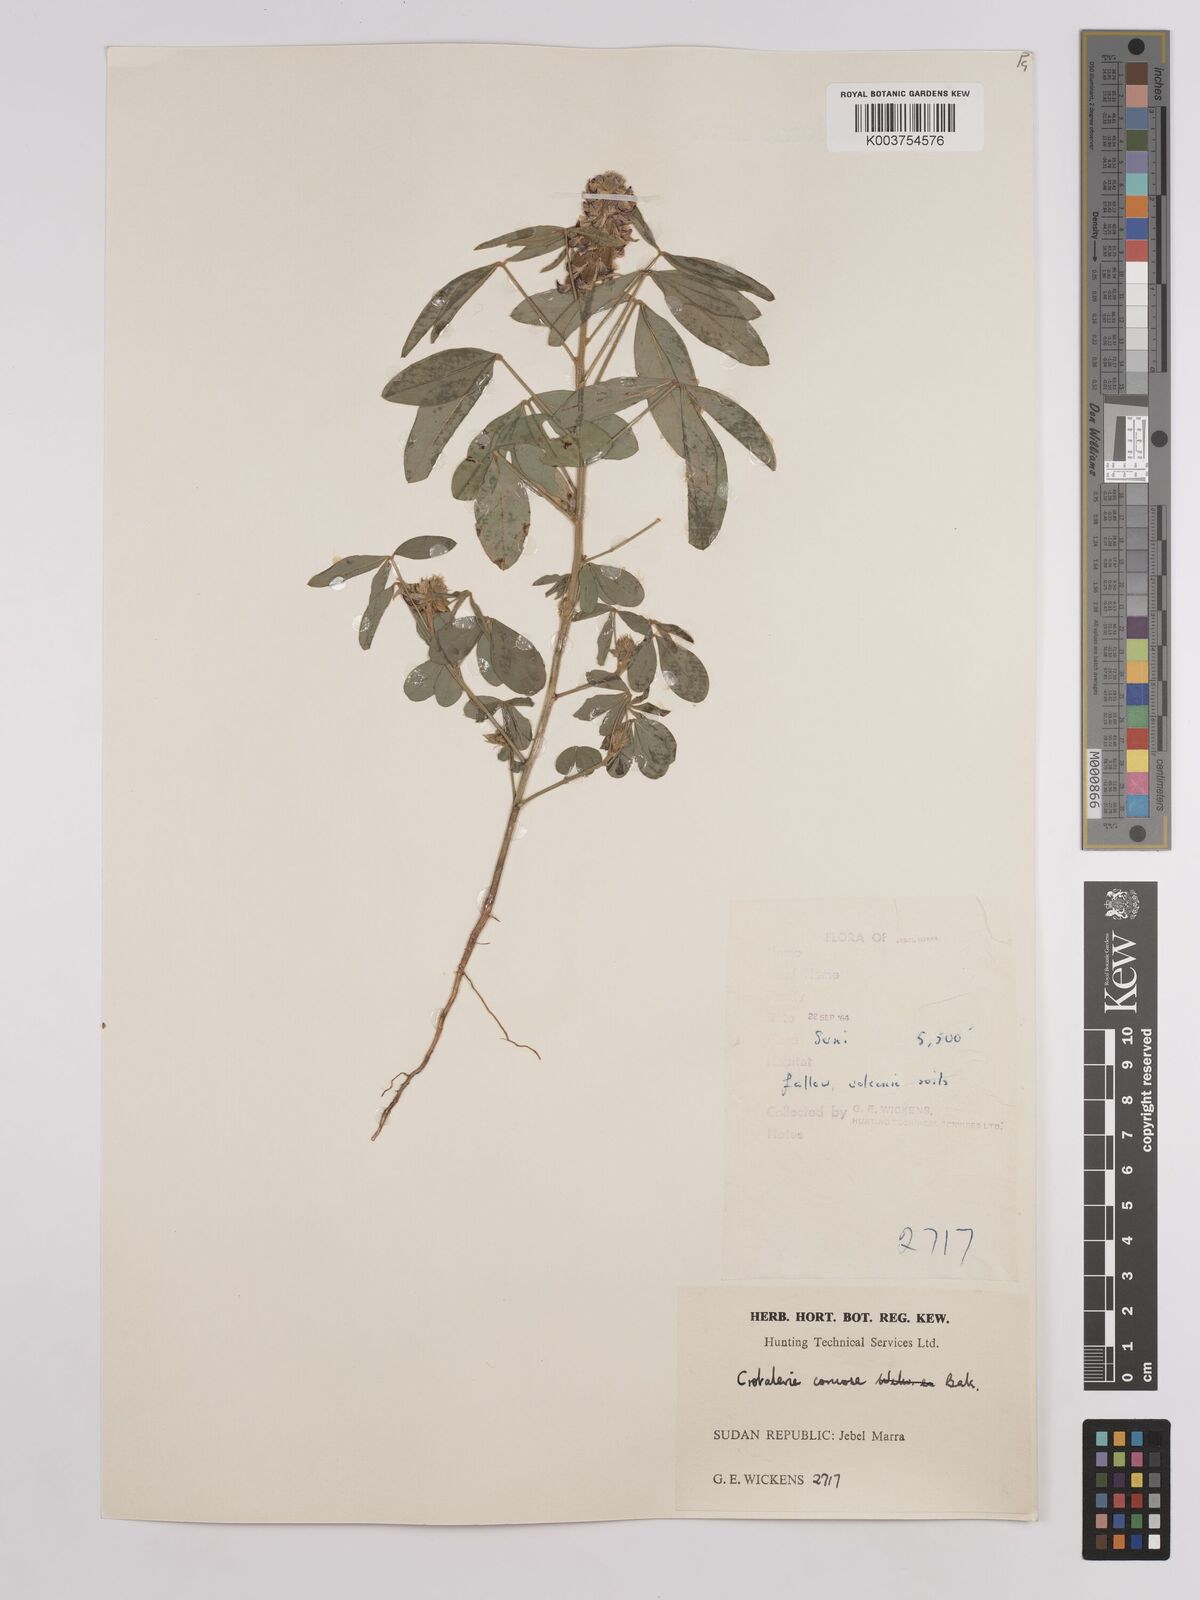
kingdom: Plantae
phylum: Tracheophyta
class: Magnoliopsida
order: Fabales
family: Fabaceae
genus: Crotalaria
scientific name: Crotalaria comosa
